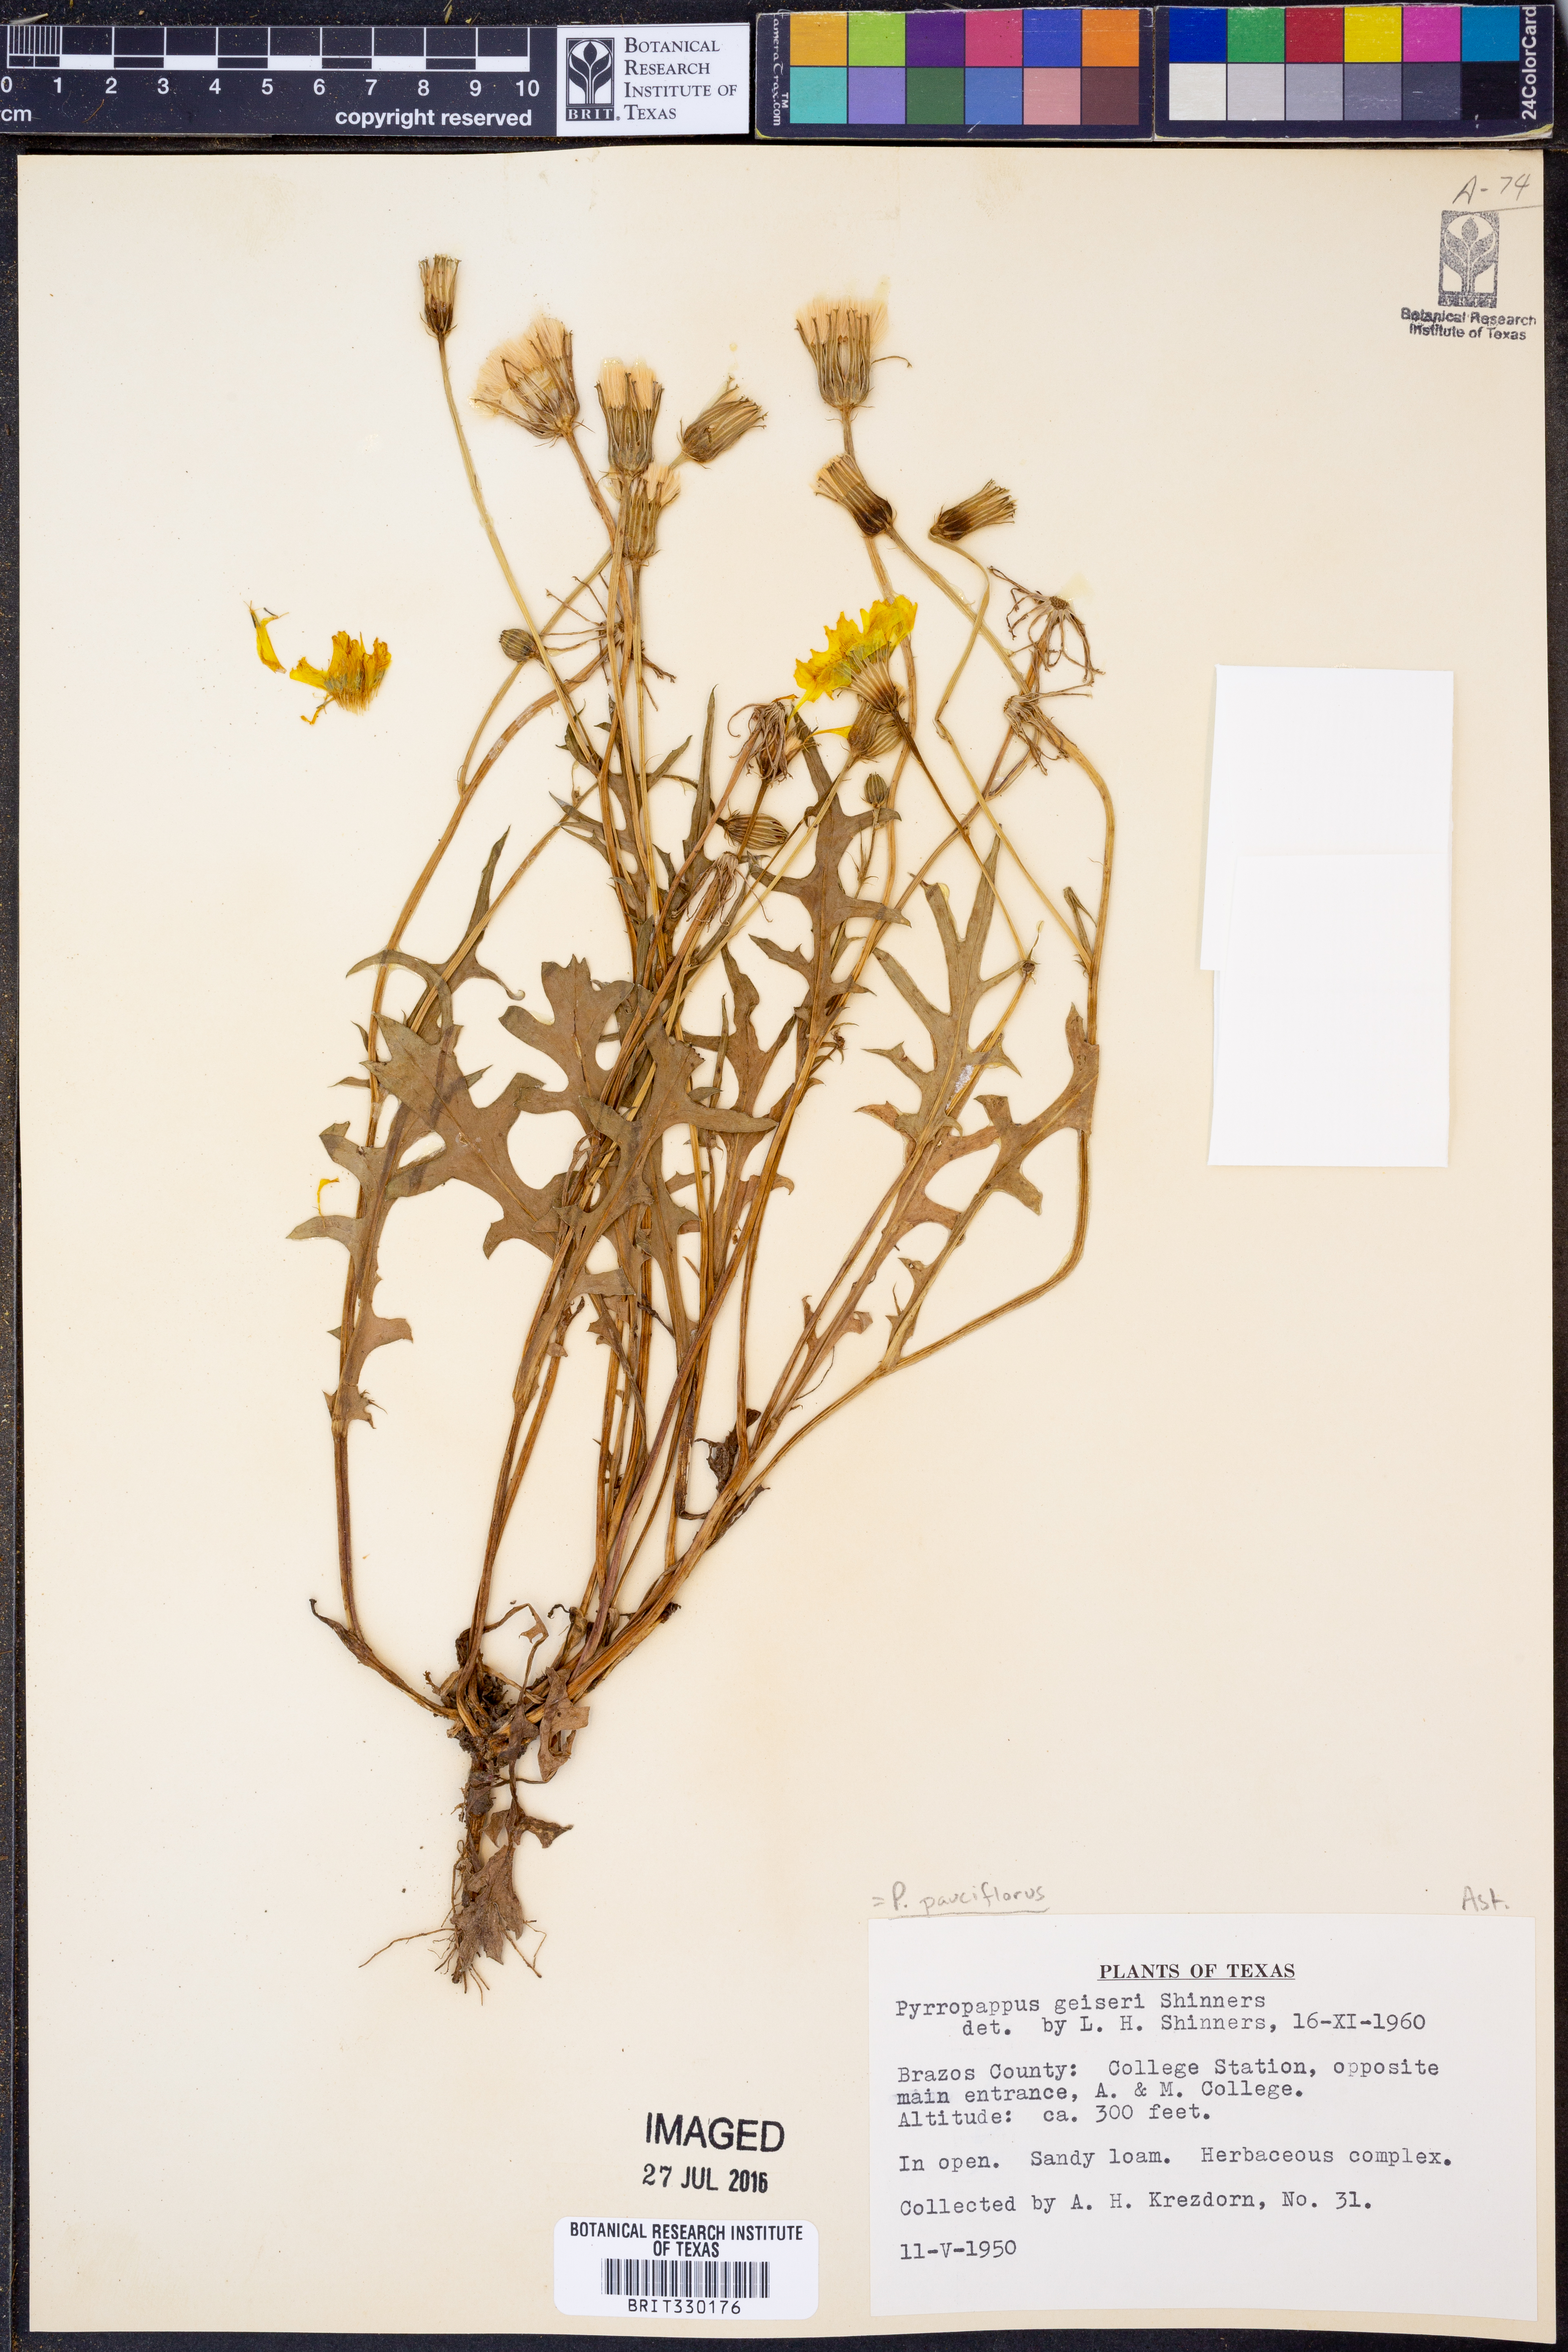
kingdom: Plantae
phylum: Tracheophyta
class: Magnoliopsida
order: Asterales
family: Asteraceae
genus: Pyrrhopappus
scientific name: Pyrrhopappus pauciflorus
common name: Texas false dandelion
